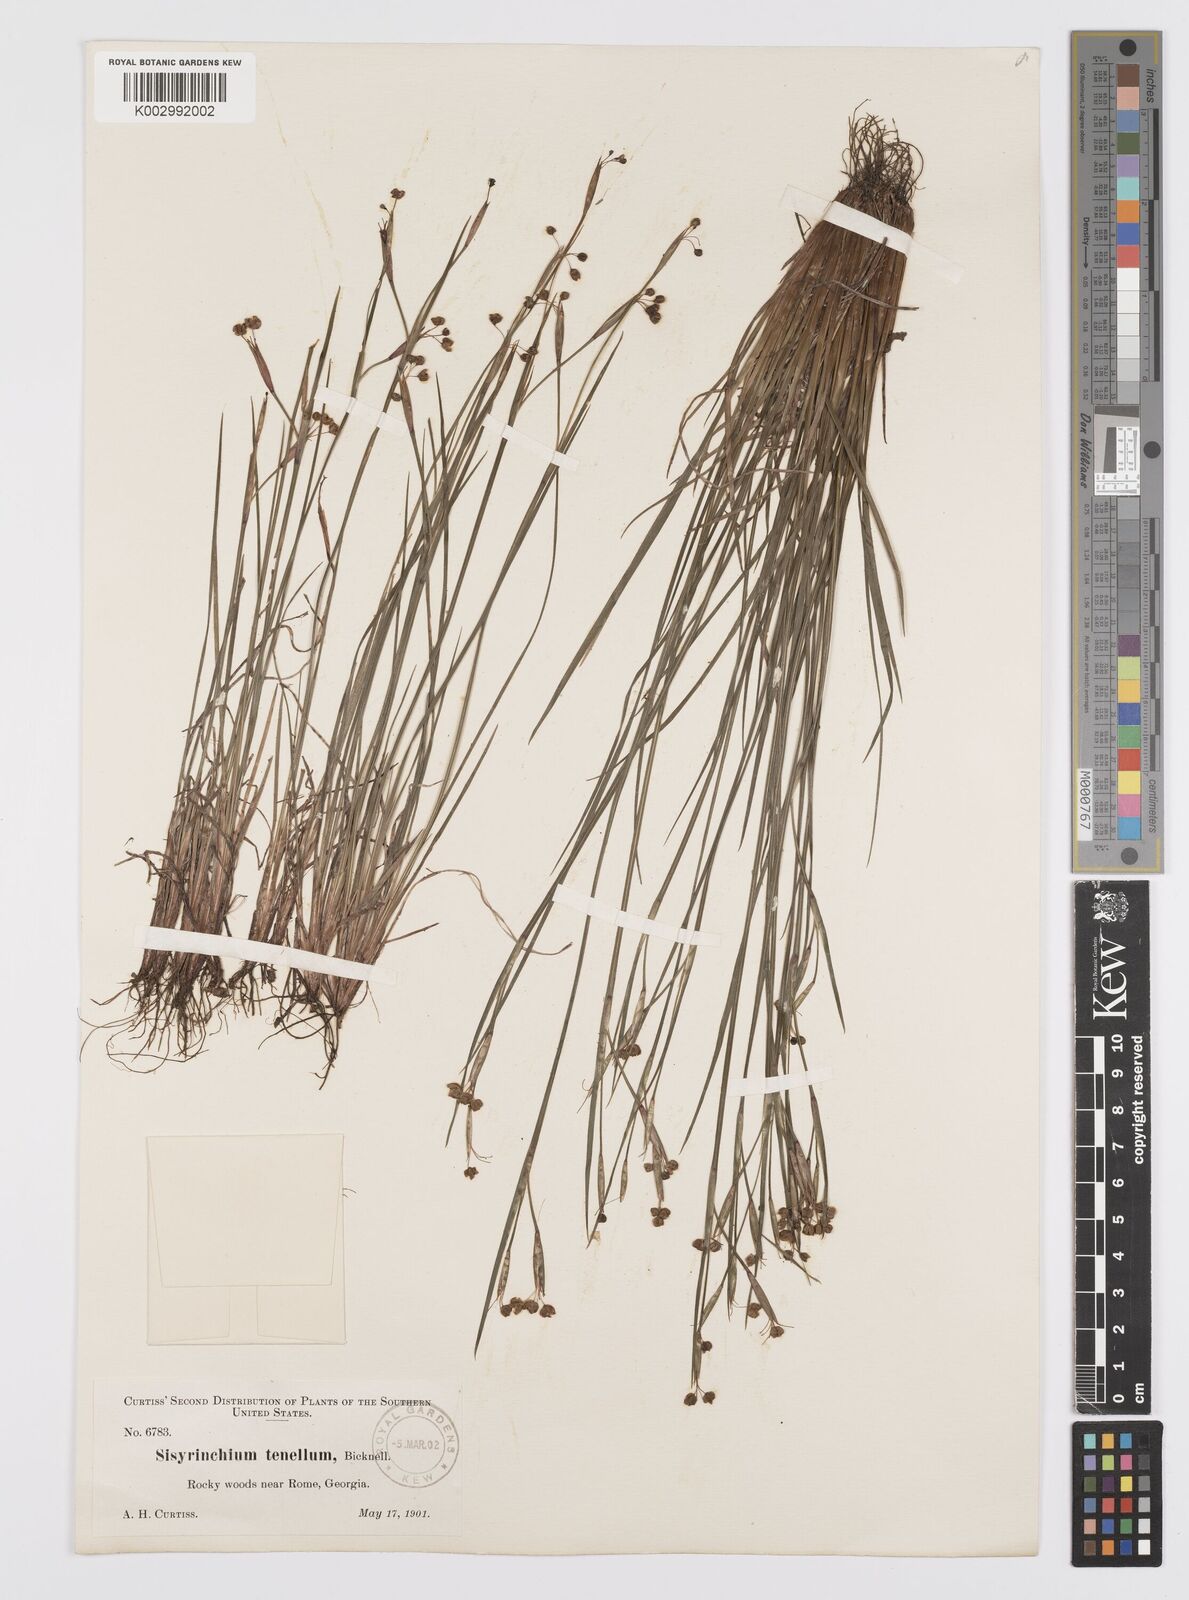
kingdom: Plantae
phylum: Tracheophyta
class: Liliopsida
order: Asparagales
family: Iridaceae
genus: Sisyrinchium
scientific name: Sisyrinchium fuscatum
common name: Coastal plain blue-eyed-grass
